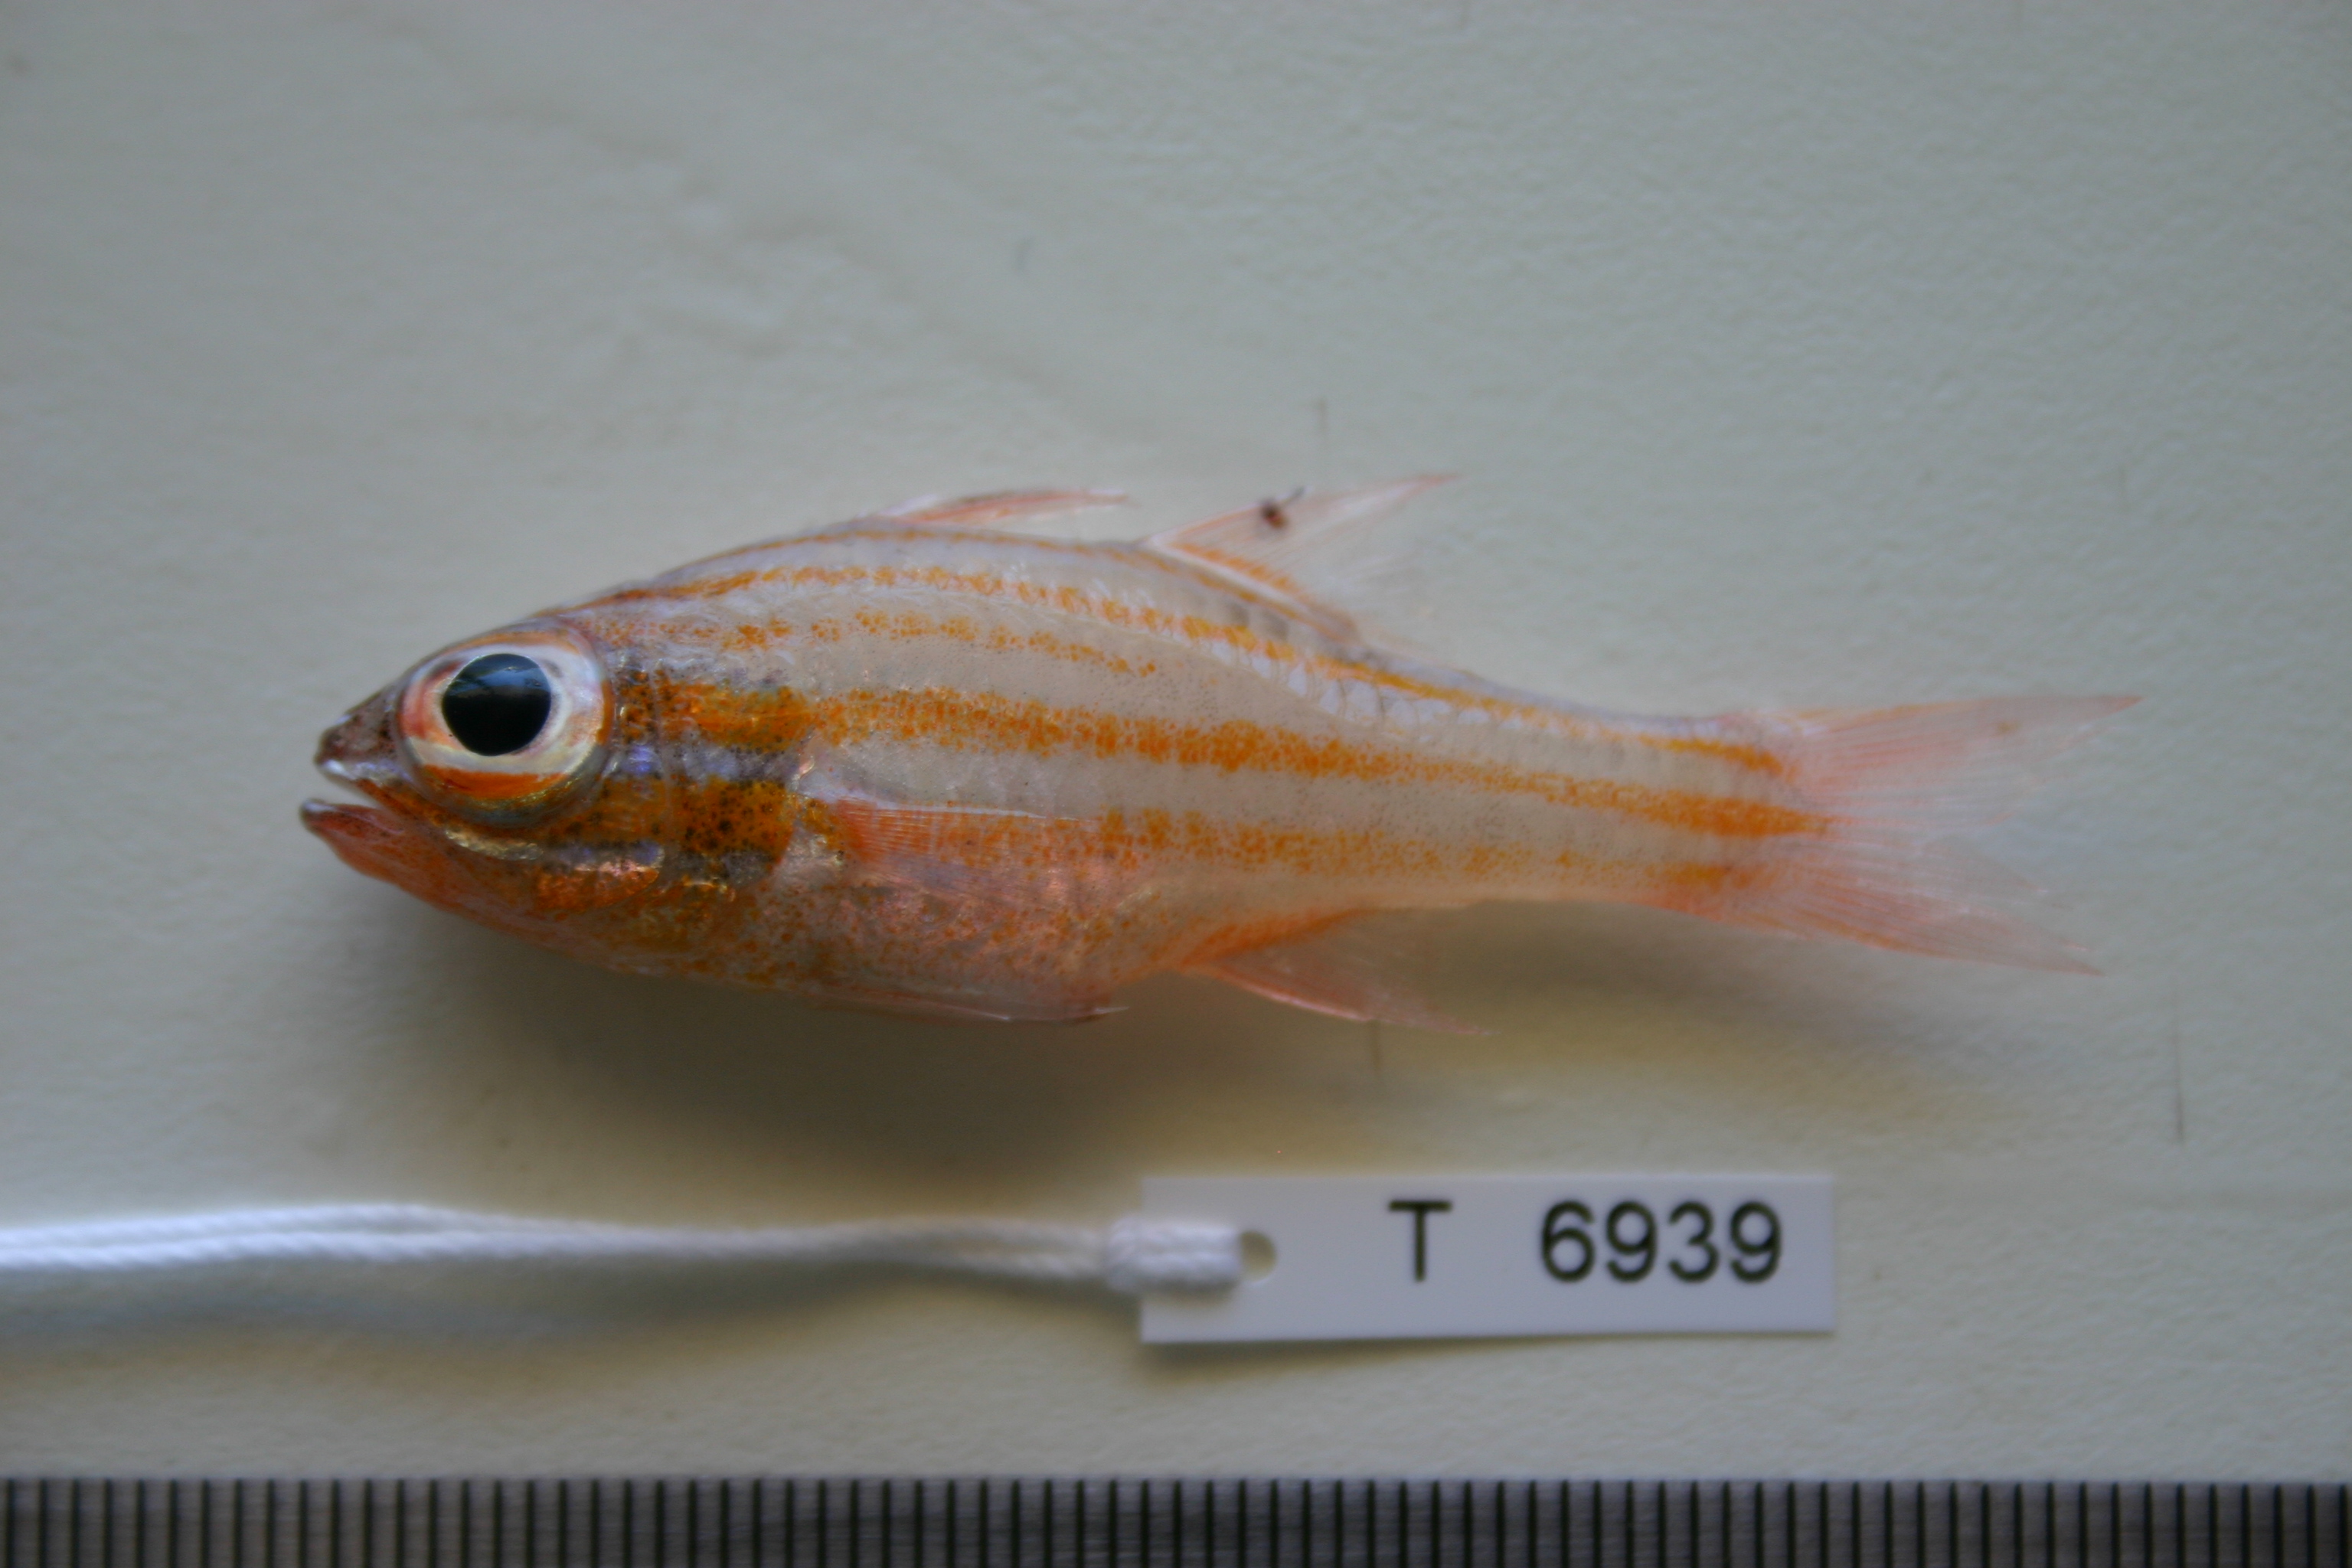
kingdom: Animalia
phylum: Chordata
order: Perciformes
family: Apogonidae
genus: Ostorhinchus
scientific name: Ostorhinchus holotaenia
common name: Copperstriped cardinalfish
